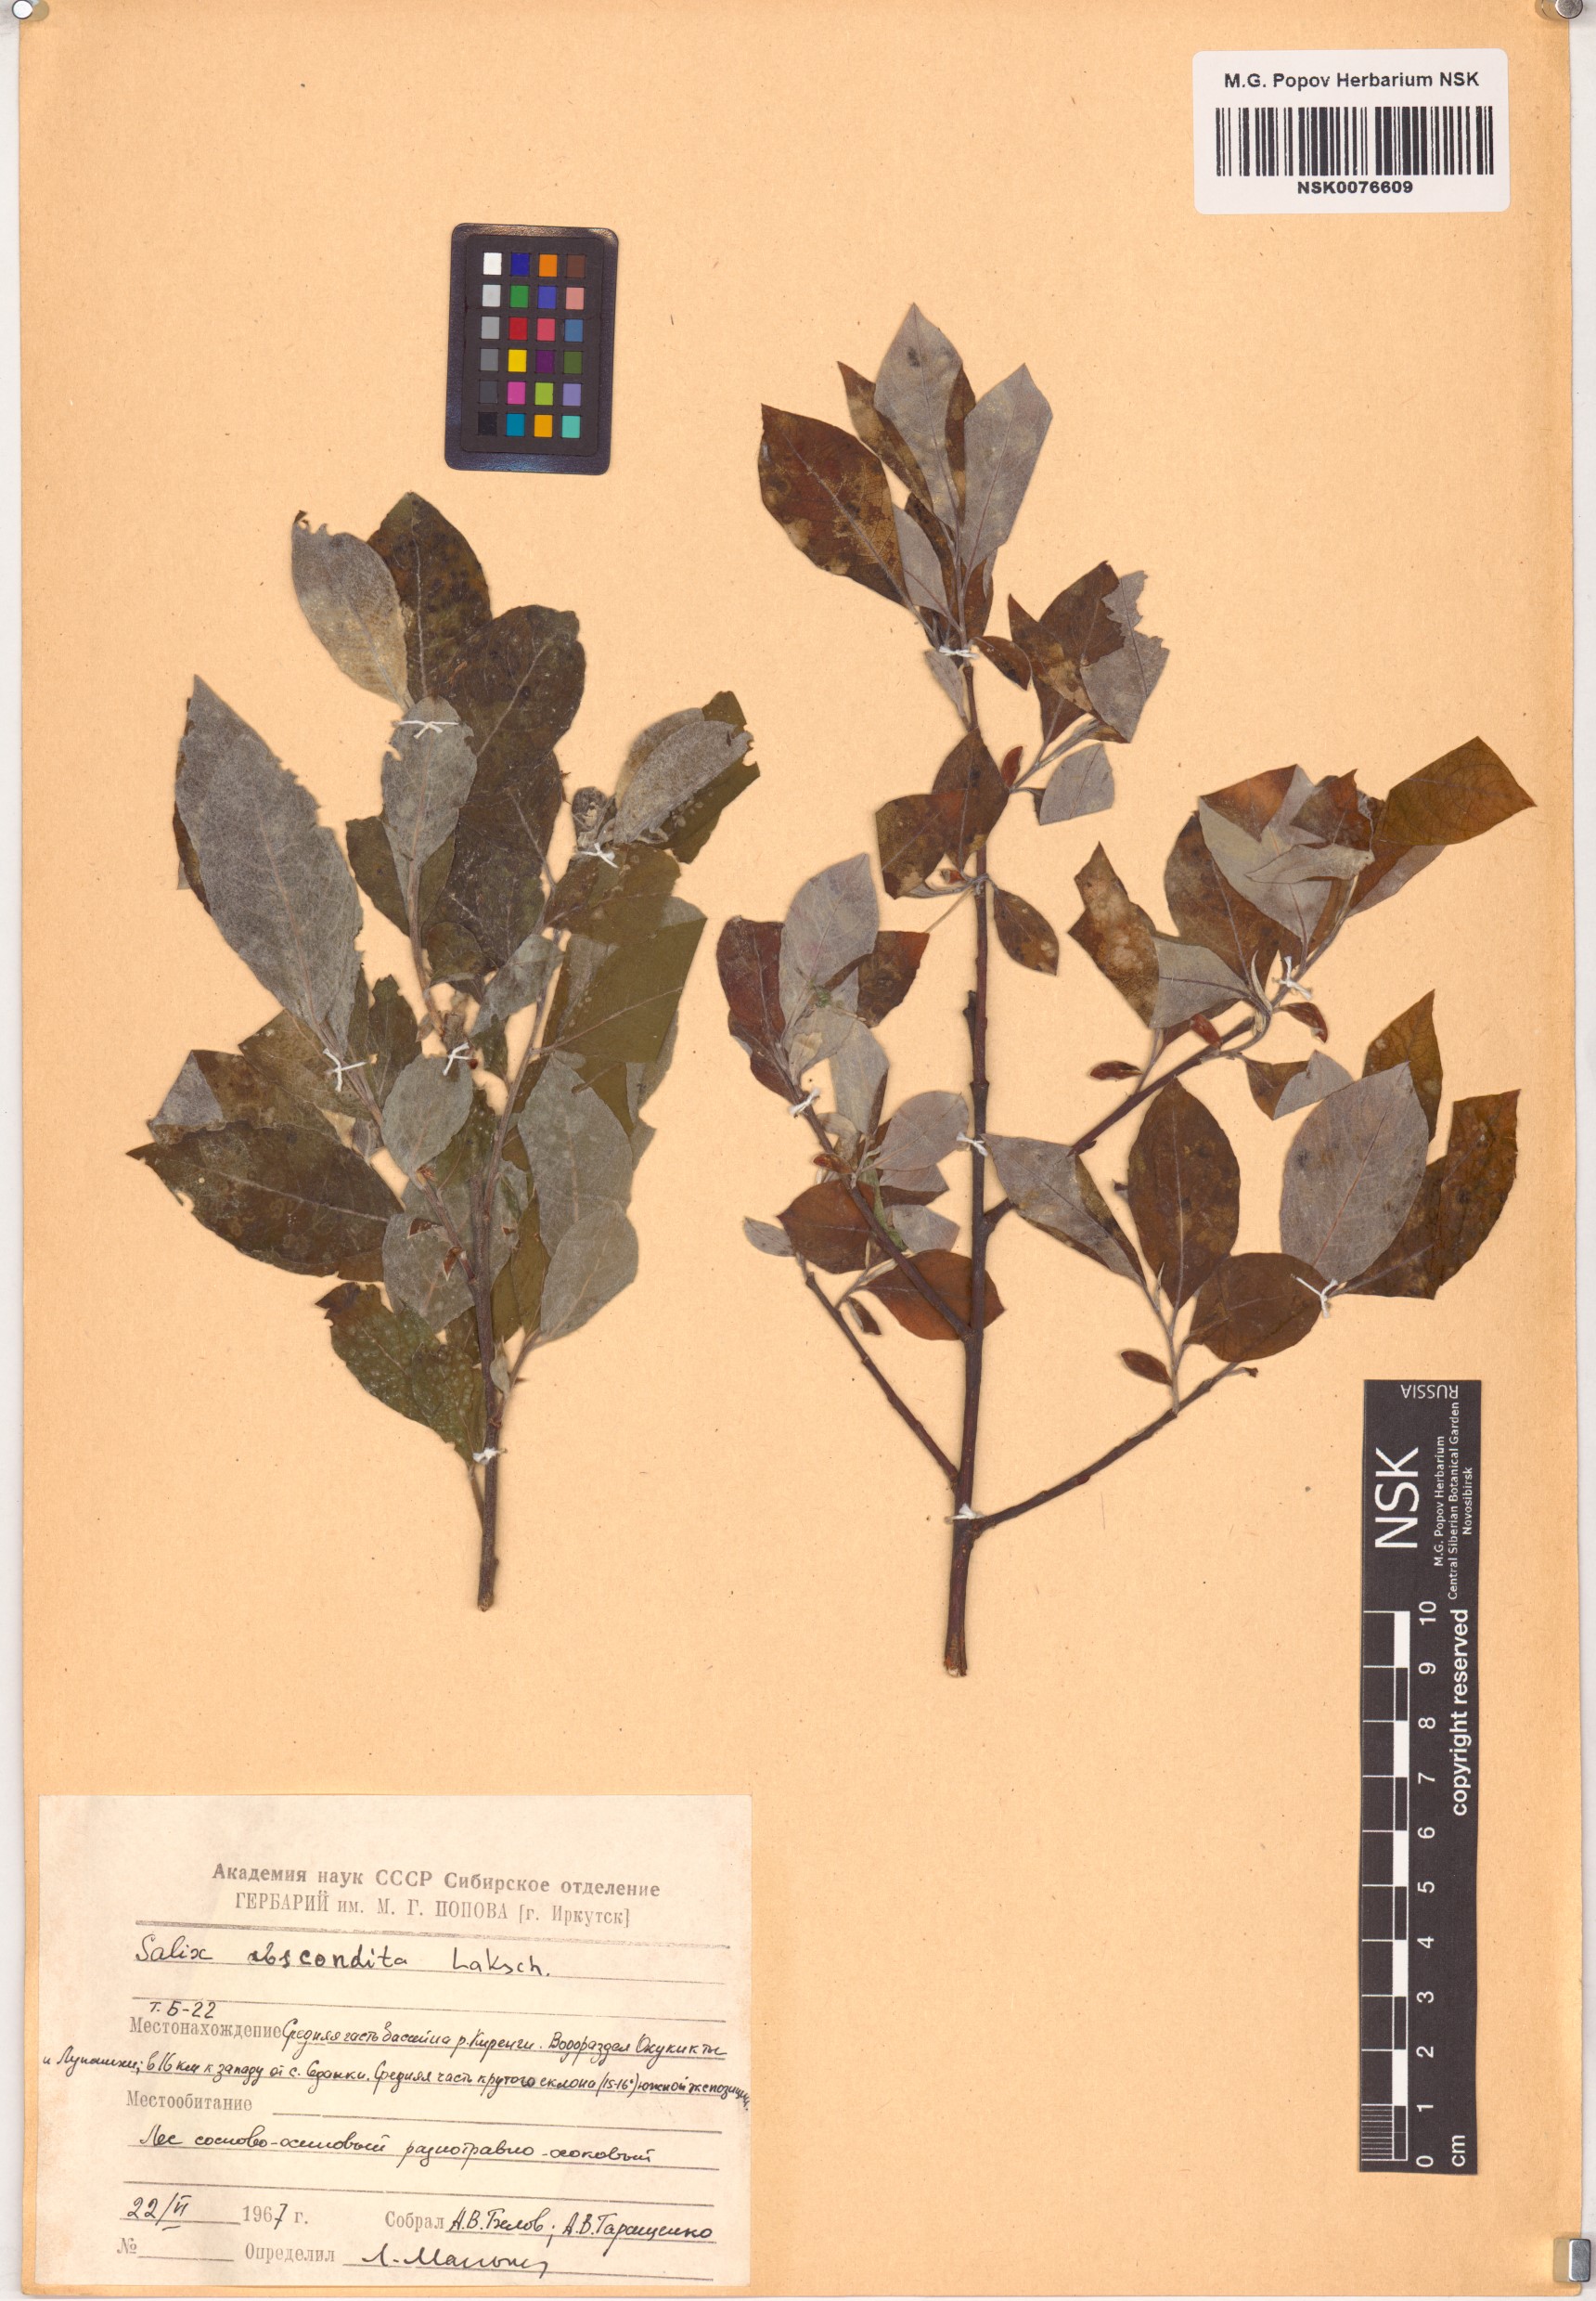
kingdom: Plantae
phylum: Tracheophyta
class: Magnoliopsida
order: Malpighiales
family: Salicaceae
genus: Salix
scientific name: Salix abscondita
